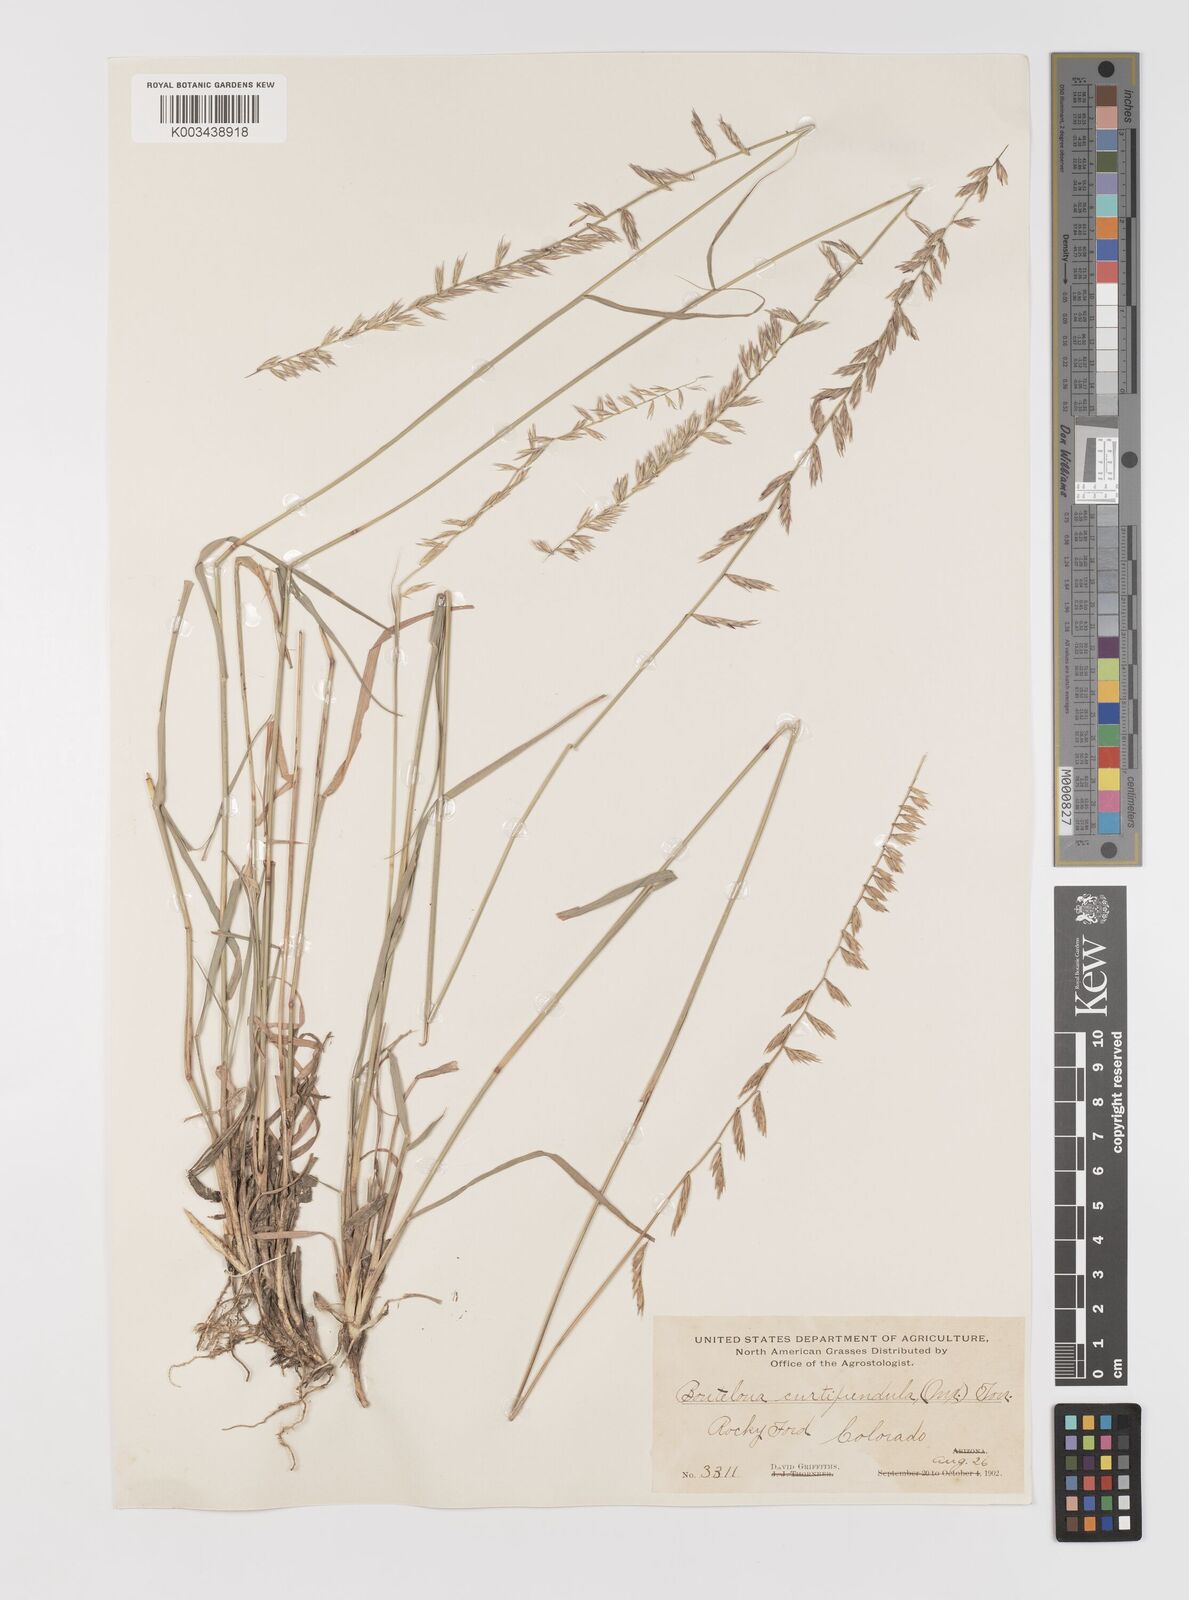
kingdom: Plantae
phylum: Tracheophyta
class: Liliopsida
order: Poales
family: Poaceae
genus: Bouteloua
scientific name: Bouteloua curtipendula
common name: Side-oats grama
